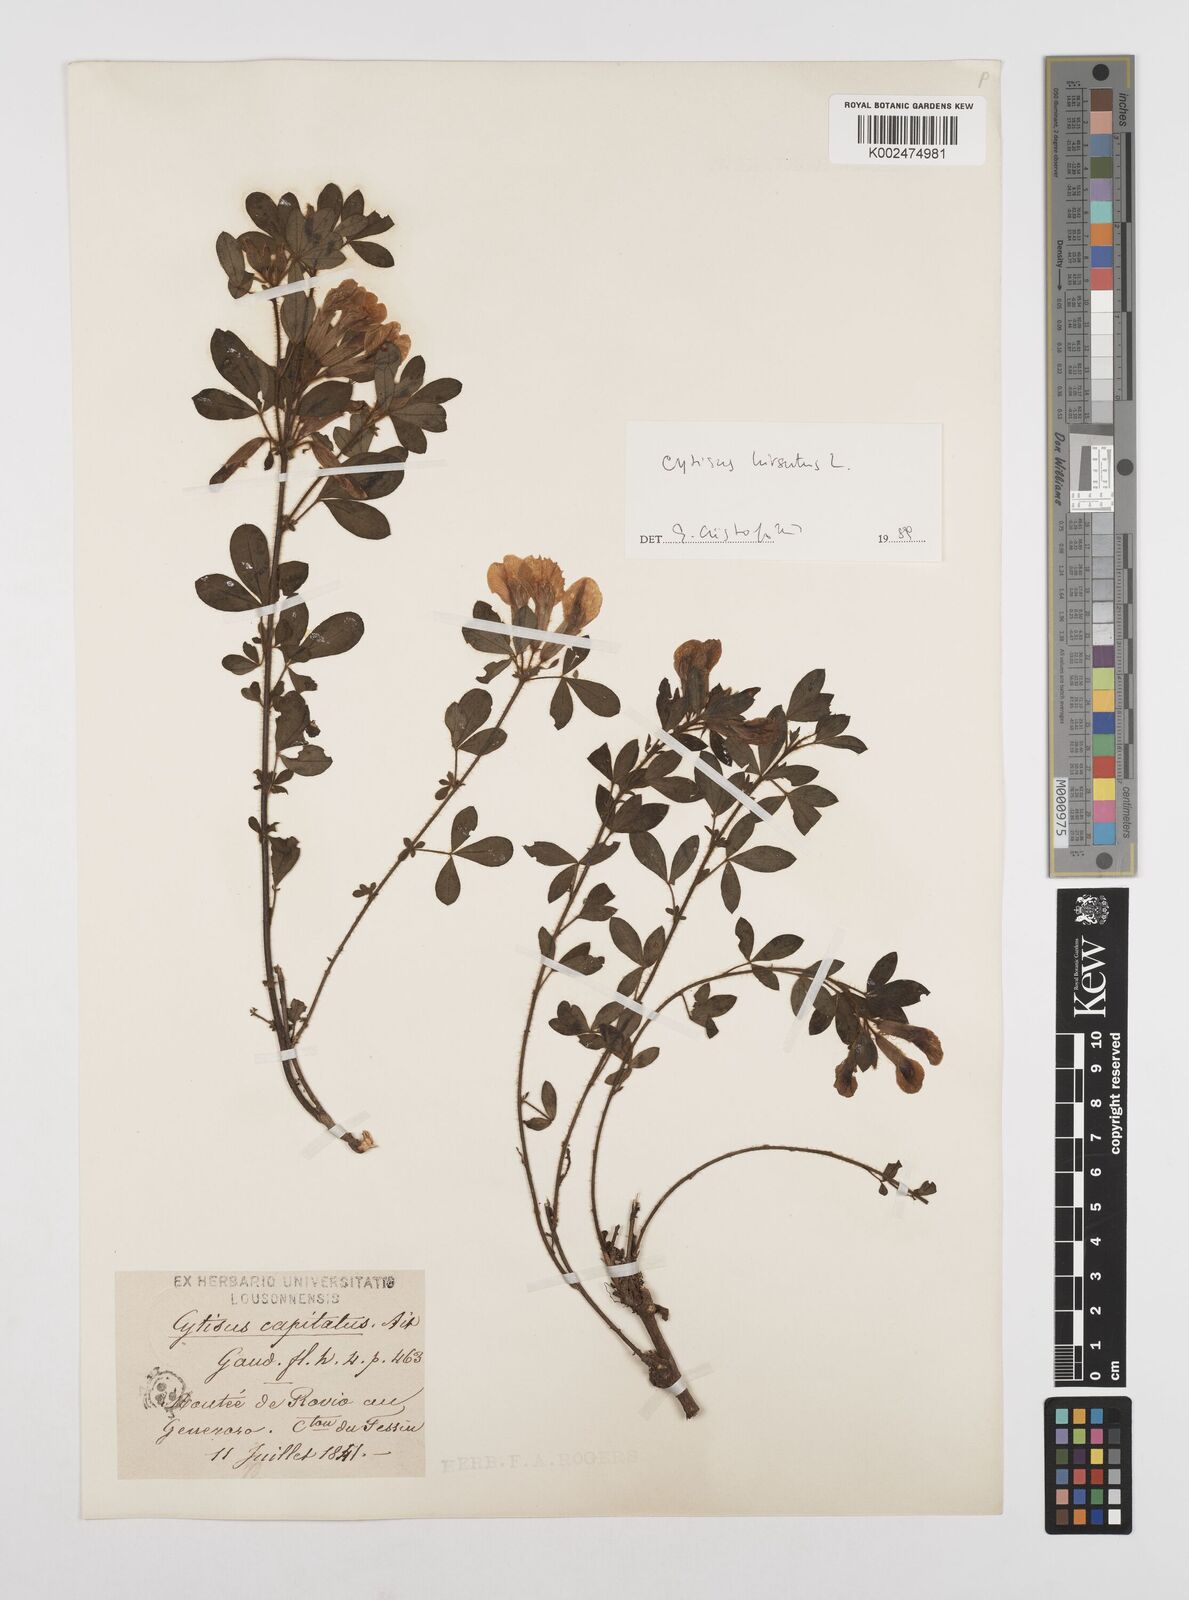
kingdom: Plantae
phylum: Tracheophyta
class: Magnoliopsida
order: Fabales
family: Fabaceae
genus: Chamaecytisus
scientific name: Chamaecytisus hirsutus
